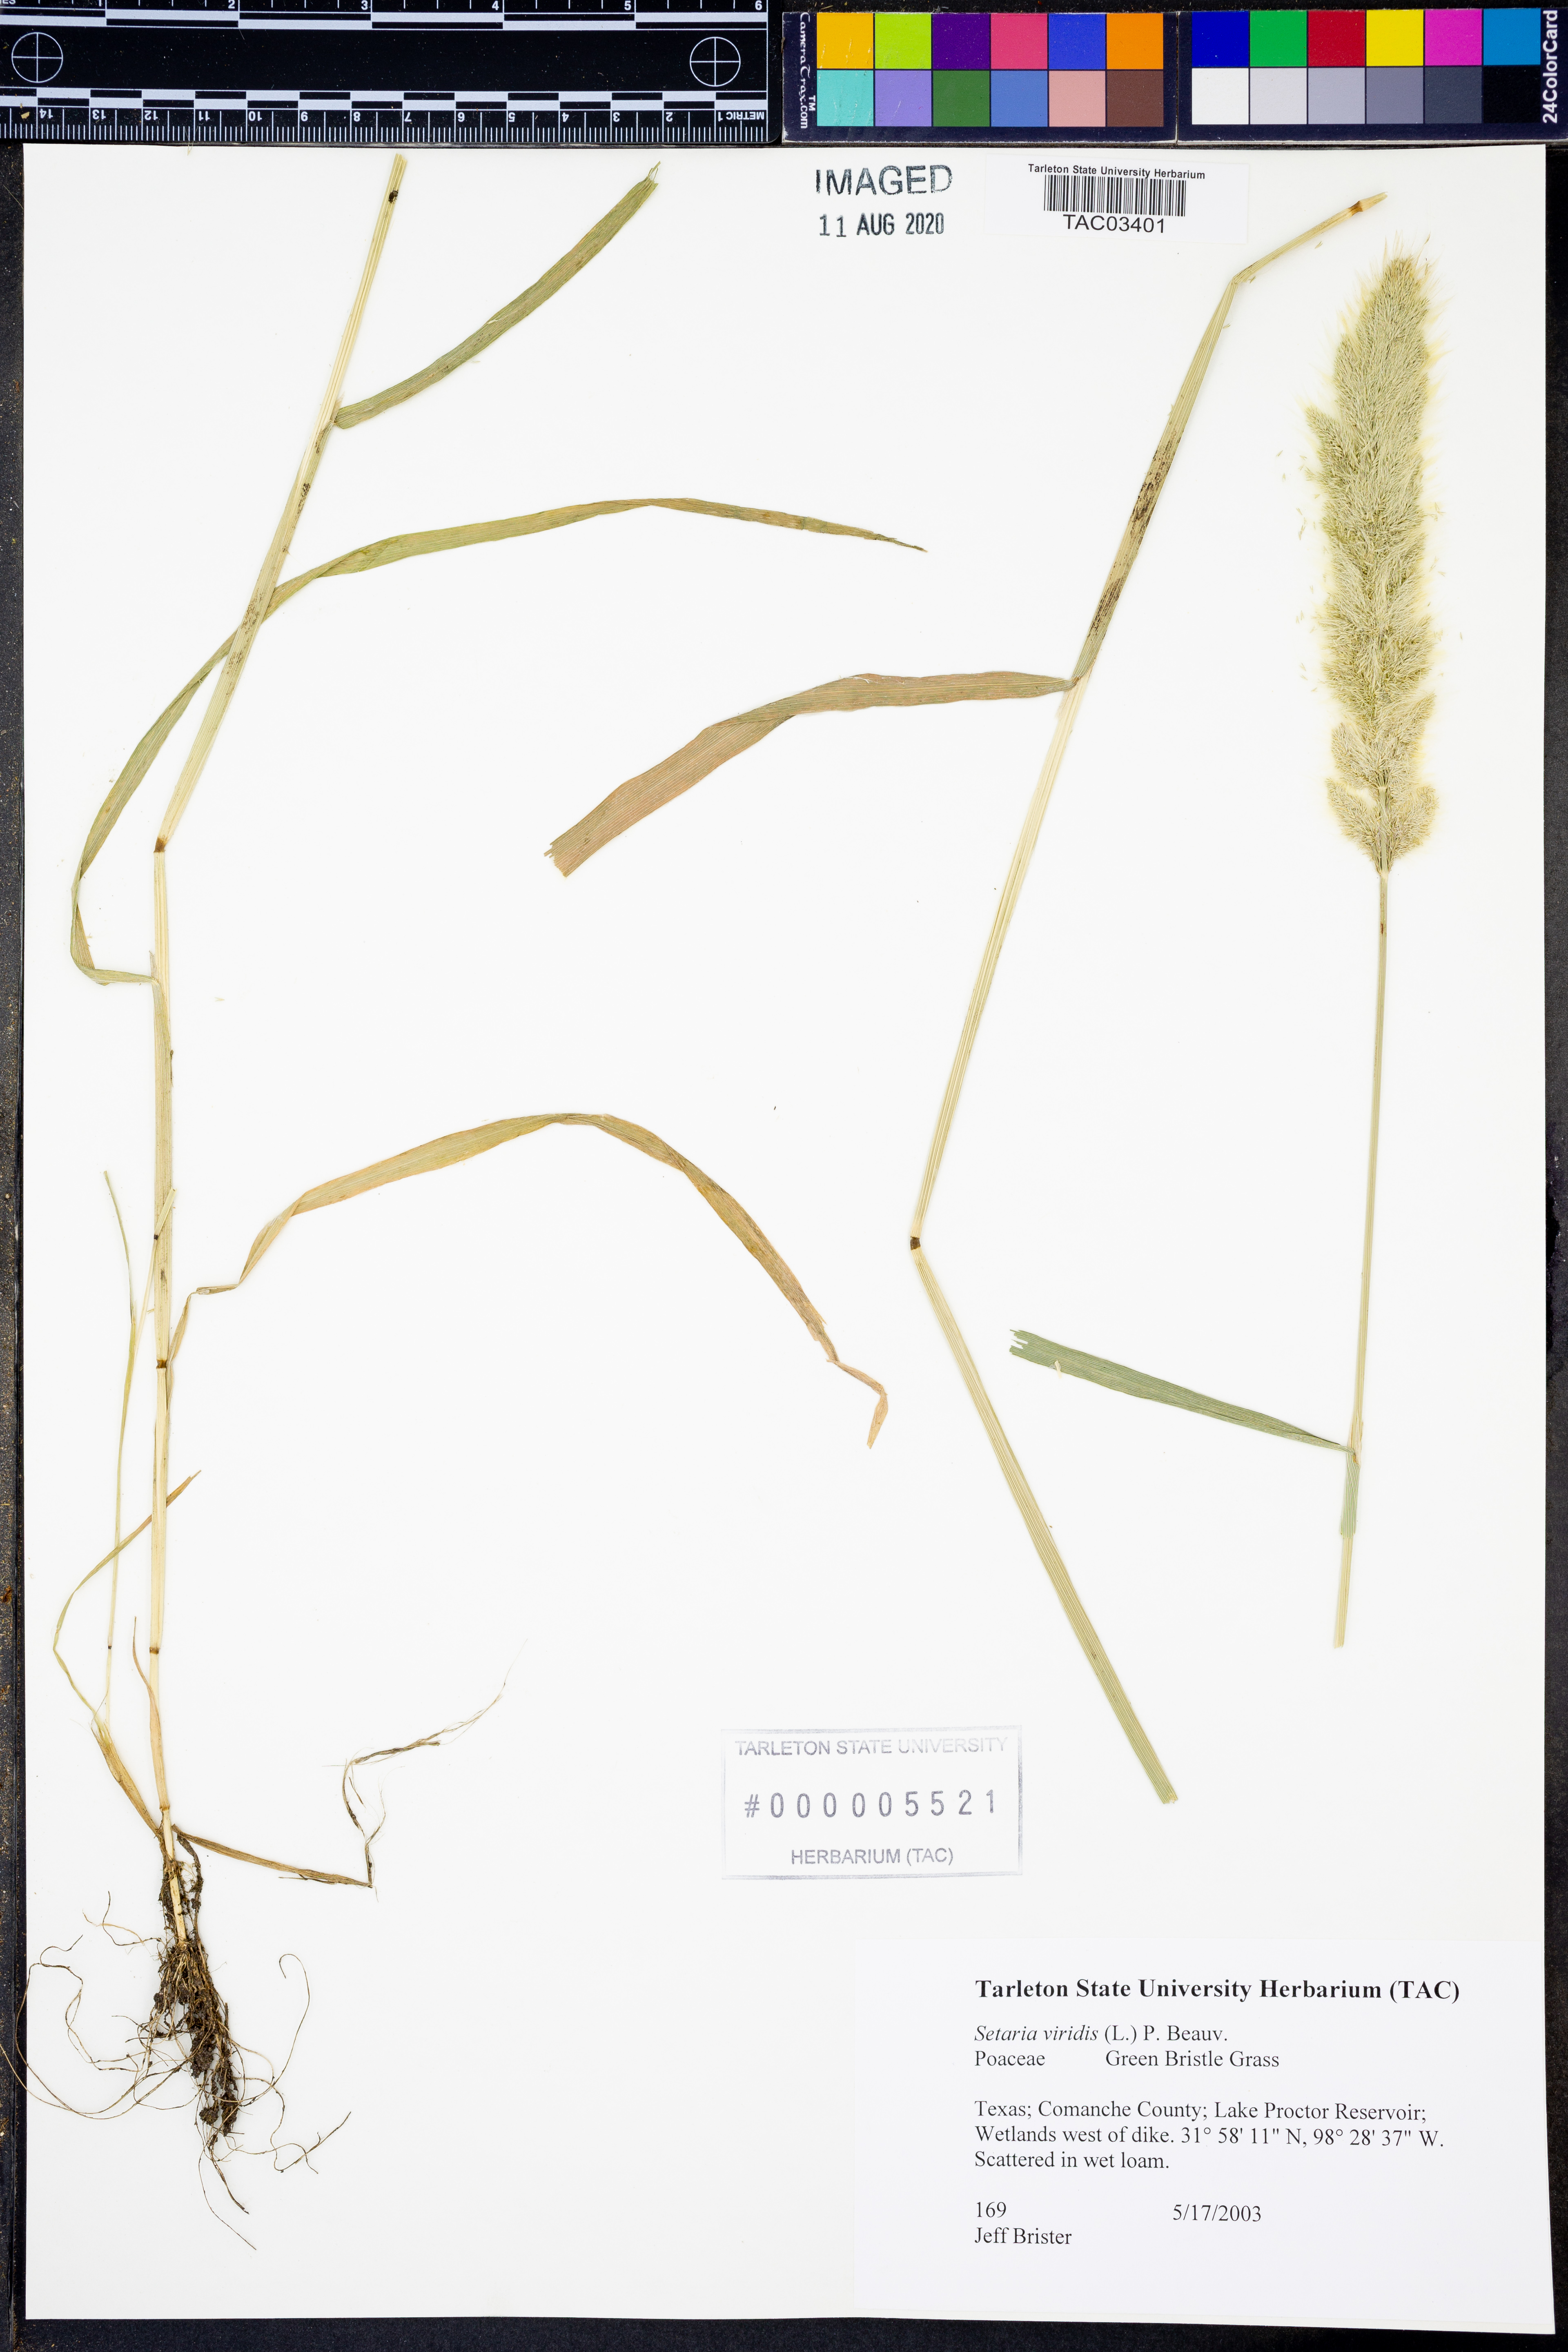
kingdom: Plantae
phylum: Tracheophyta
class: Liliopsida
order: Poales
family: Poaceae
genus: Setaria
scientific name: Setaria viridis
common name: Green bristlegrass
